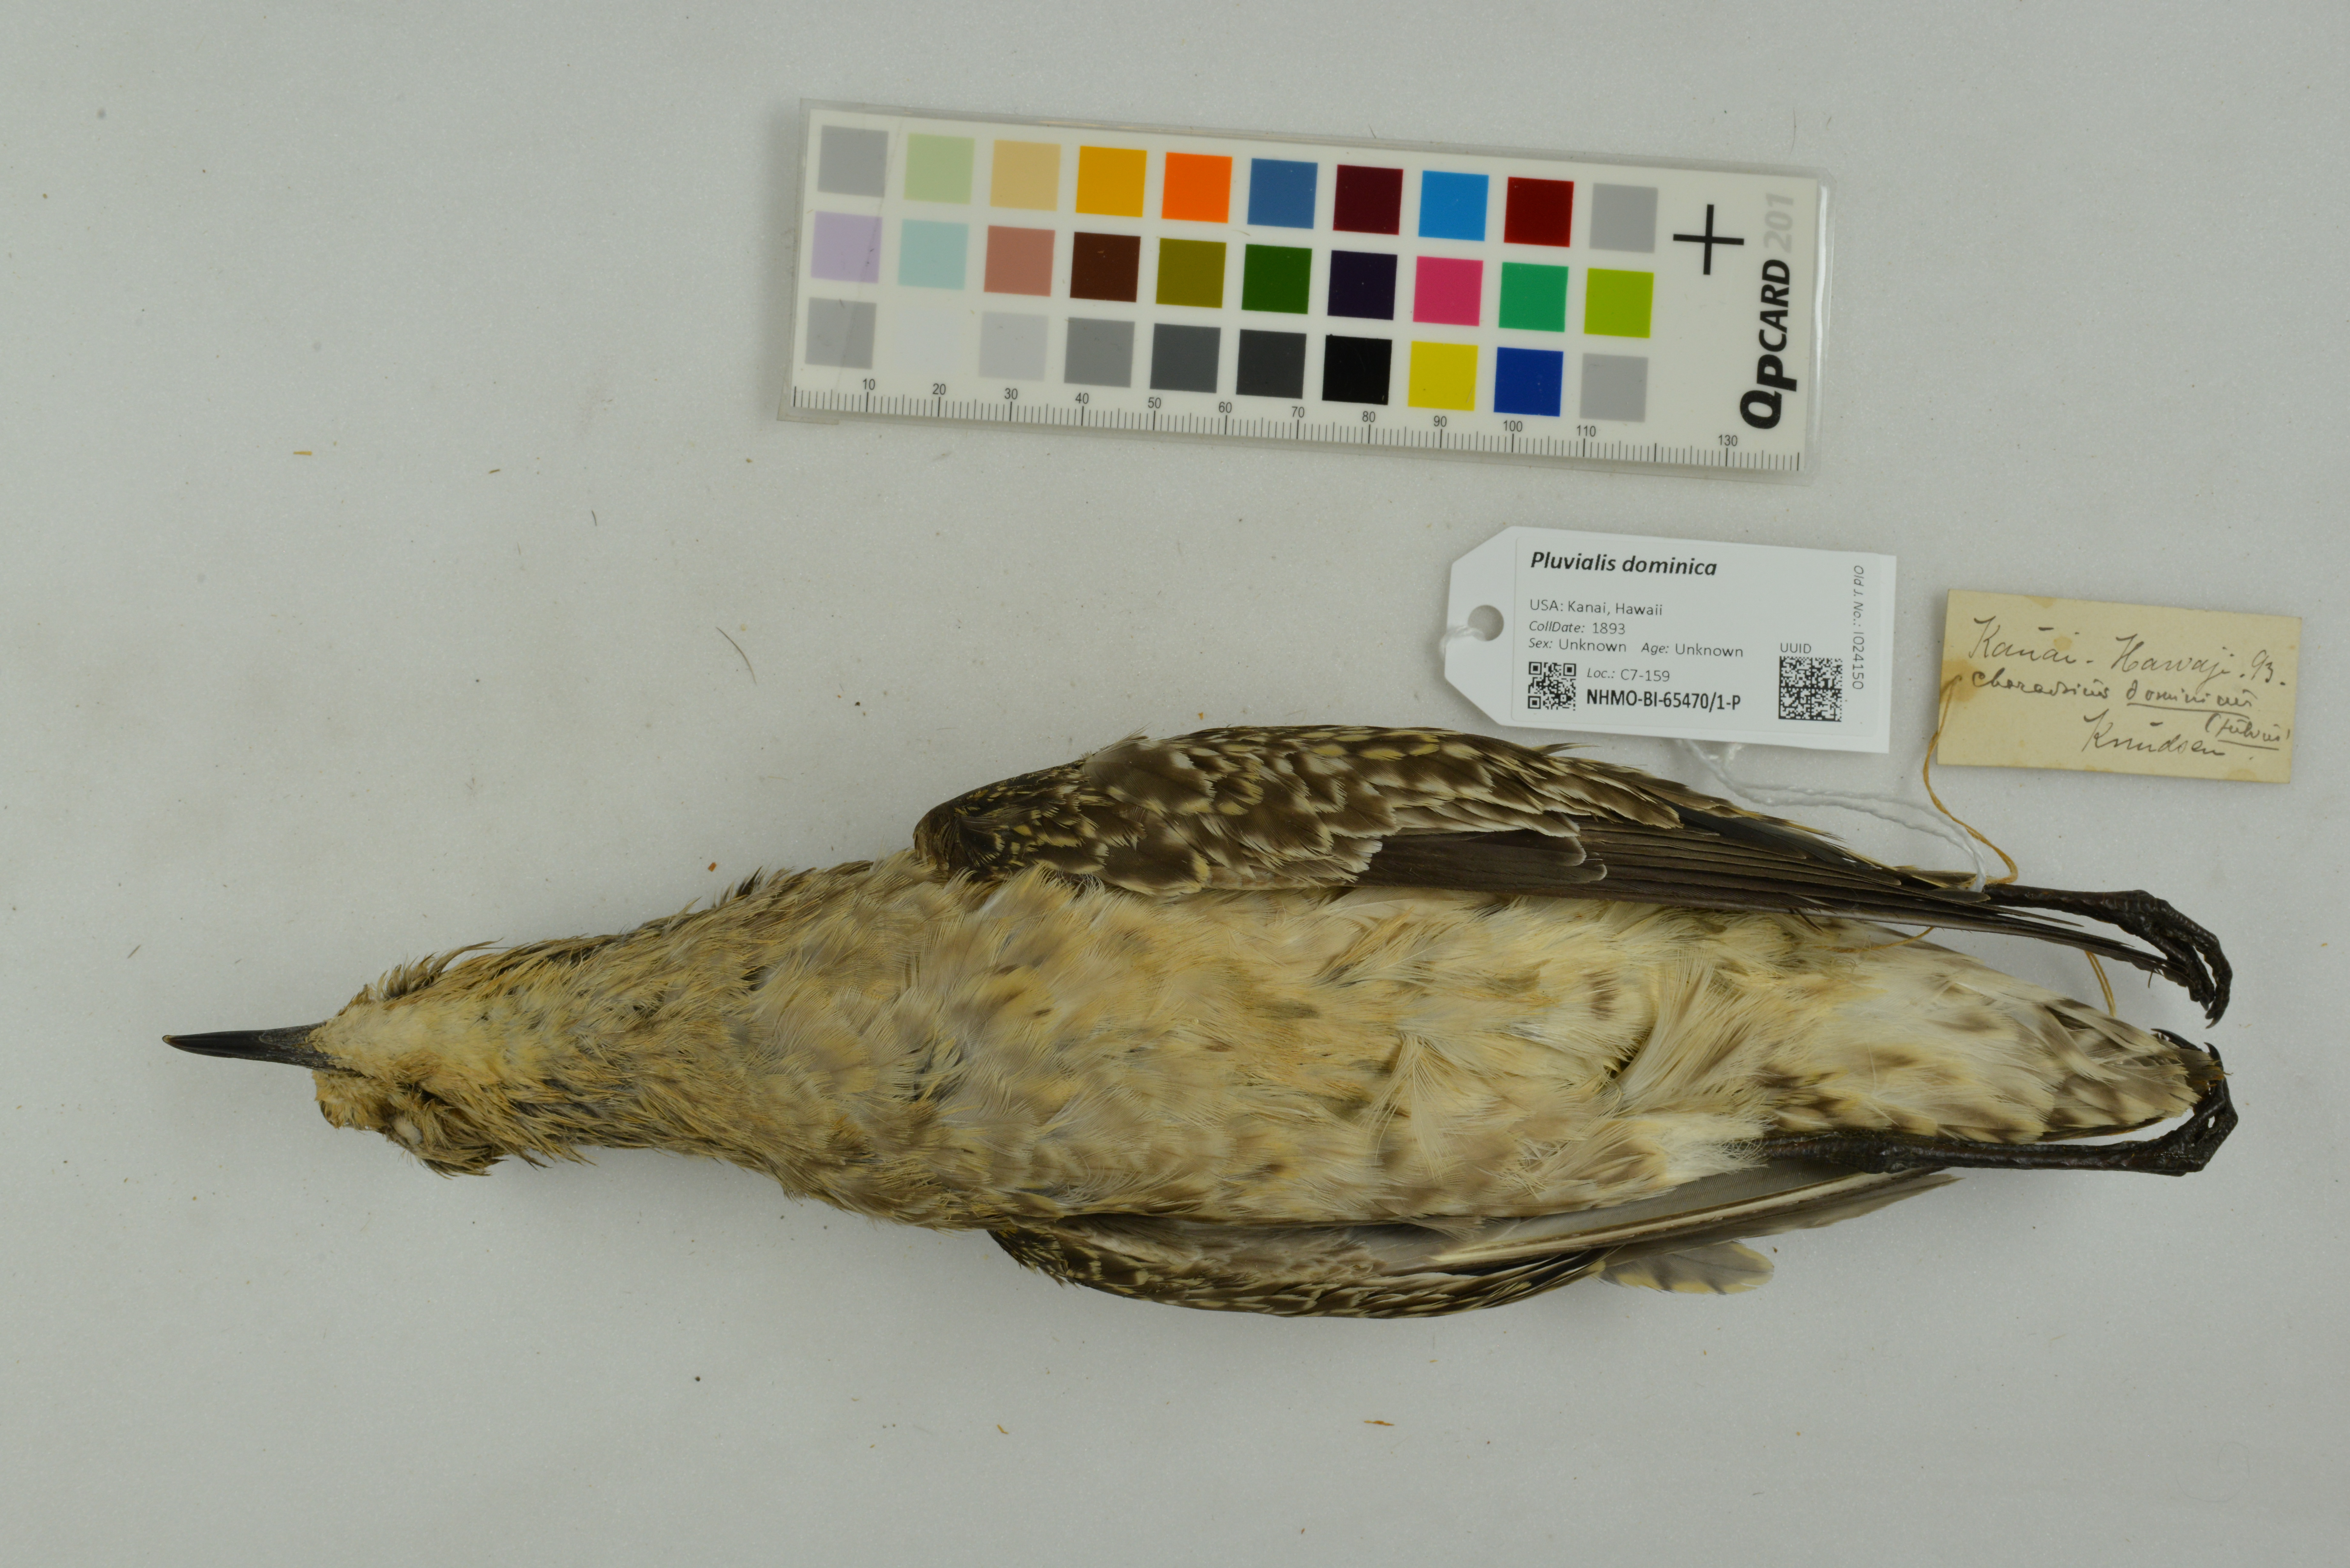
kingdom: Animalia
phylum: Chordata
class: Aves
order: Charadriiformes
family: Charadriidae
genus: Pluvialis
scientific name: Pluvialis dominica
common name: American golden plover
